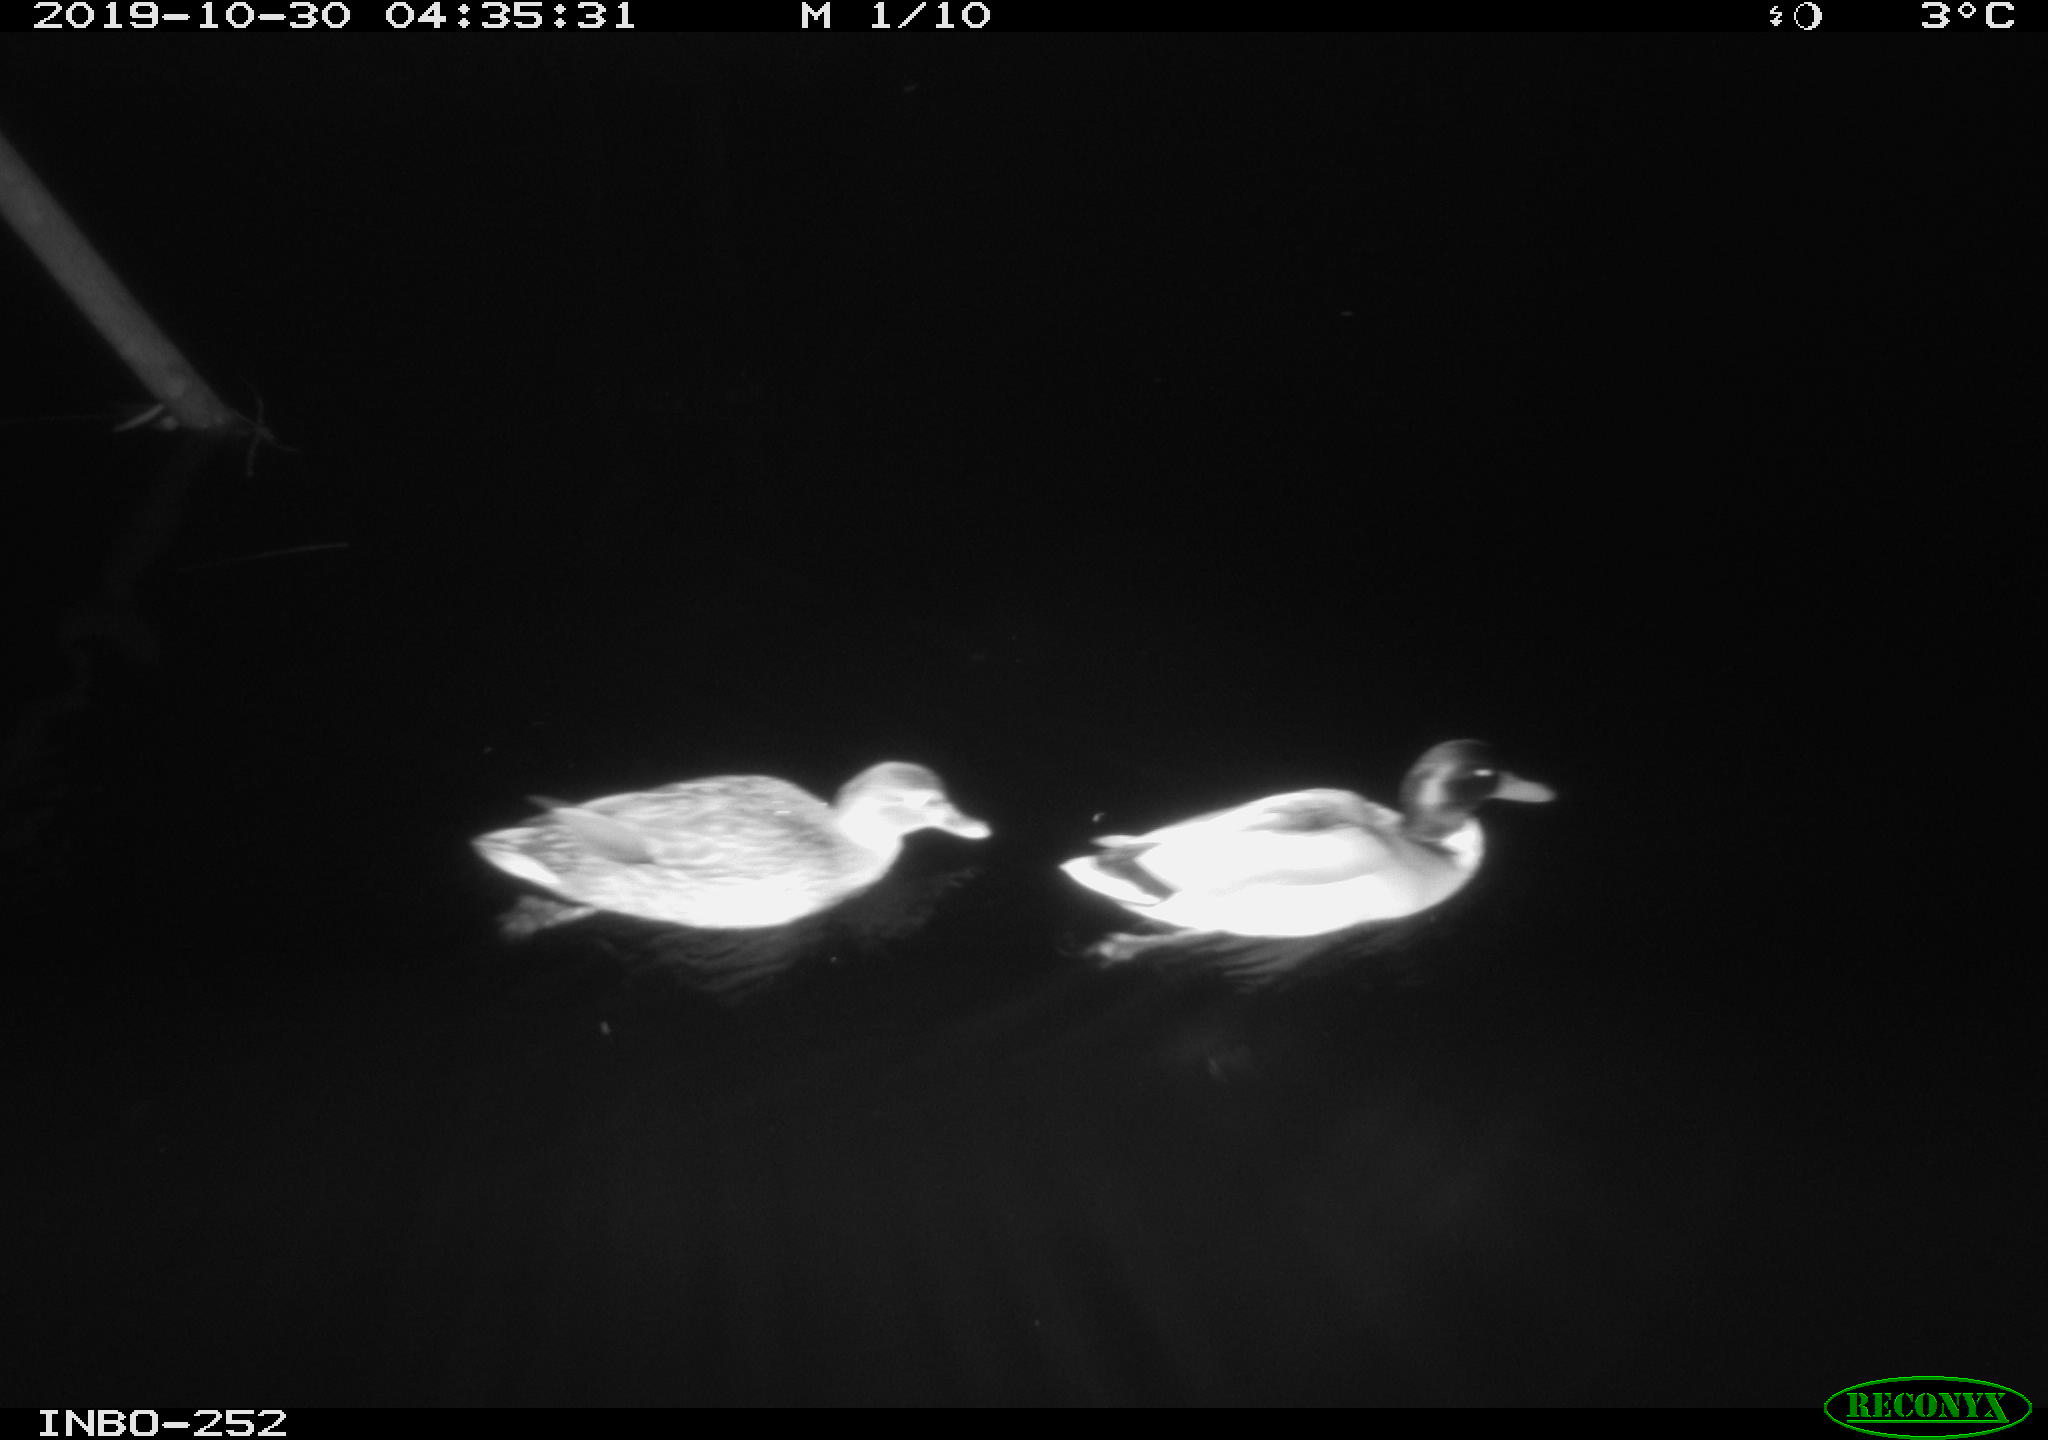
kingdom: Animalia
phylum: Chordata
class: Aves
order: Anseriformes
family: Anatidae
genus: Anas
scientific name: Anas platyrhynchos
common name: Mallard
